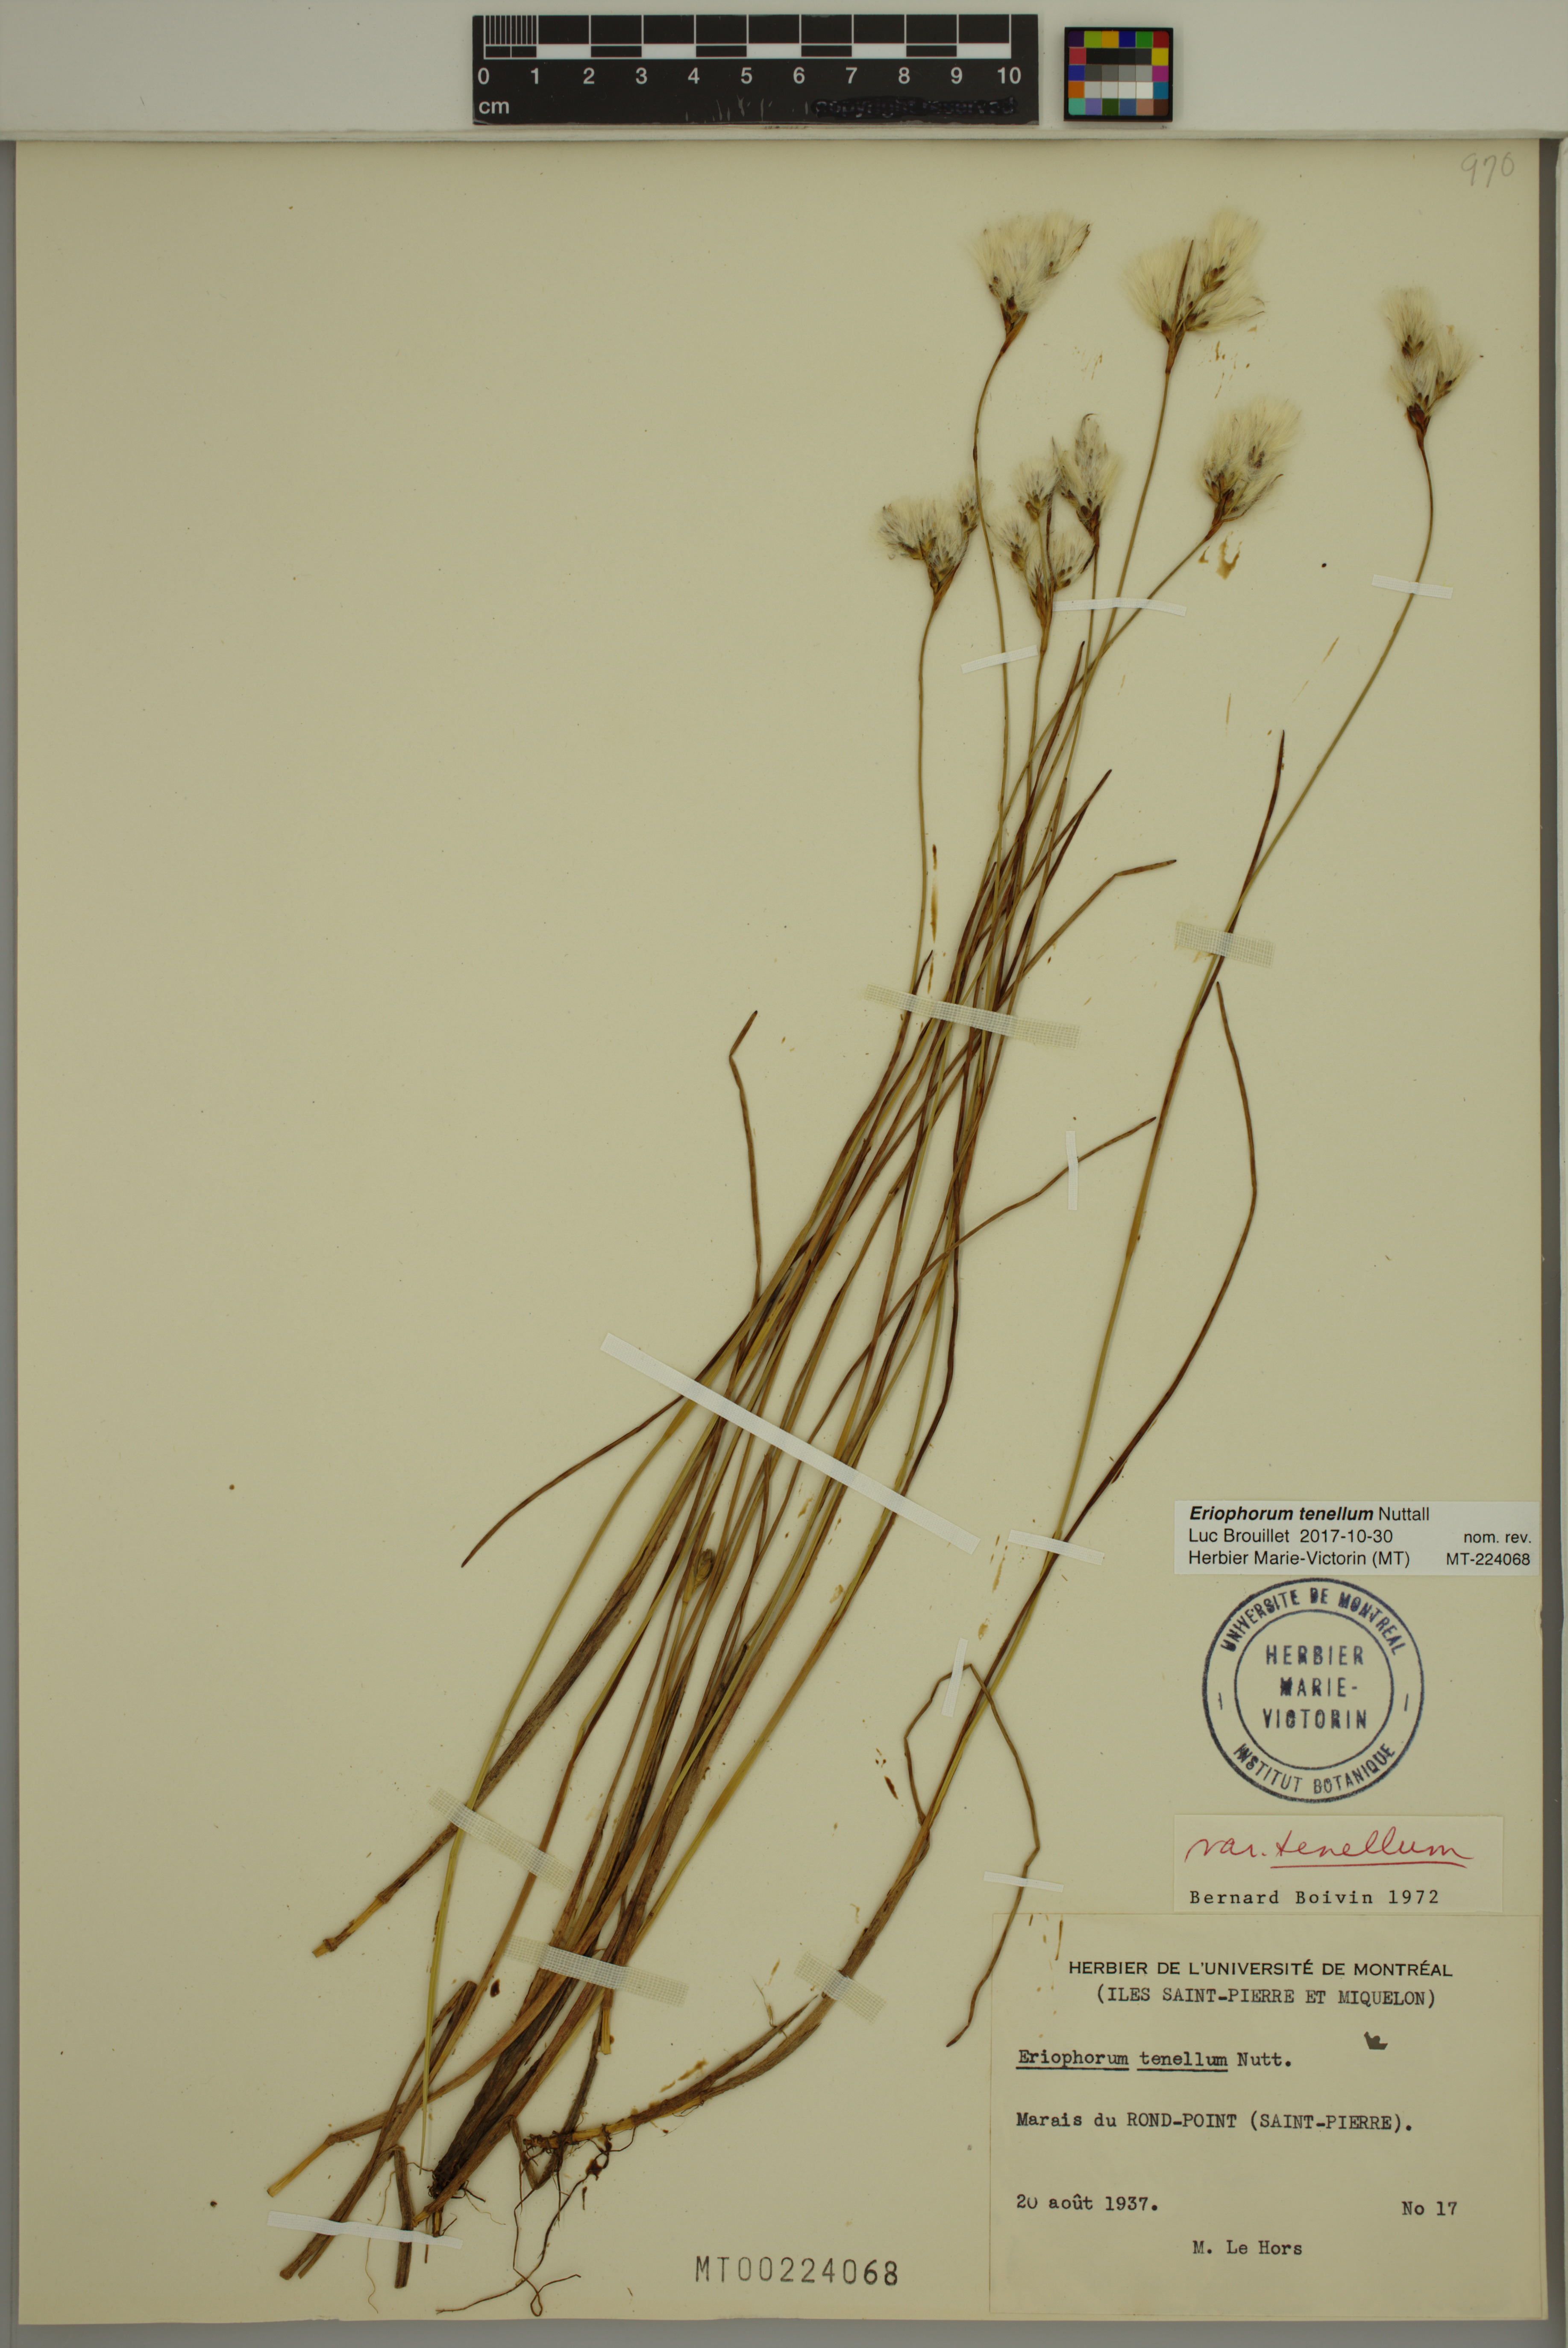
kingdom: Plantae
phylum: Tracheophyta
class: Liliopsida
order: Poales
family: Cyperaceae
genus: Eriophorum
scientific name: Eriophorum tenellum
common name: Few-nerved cottongrass
